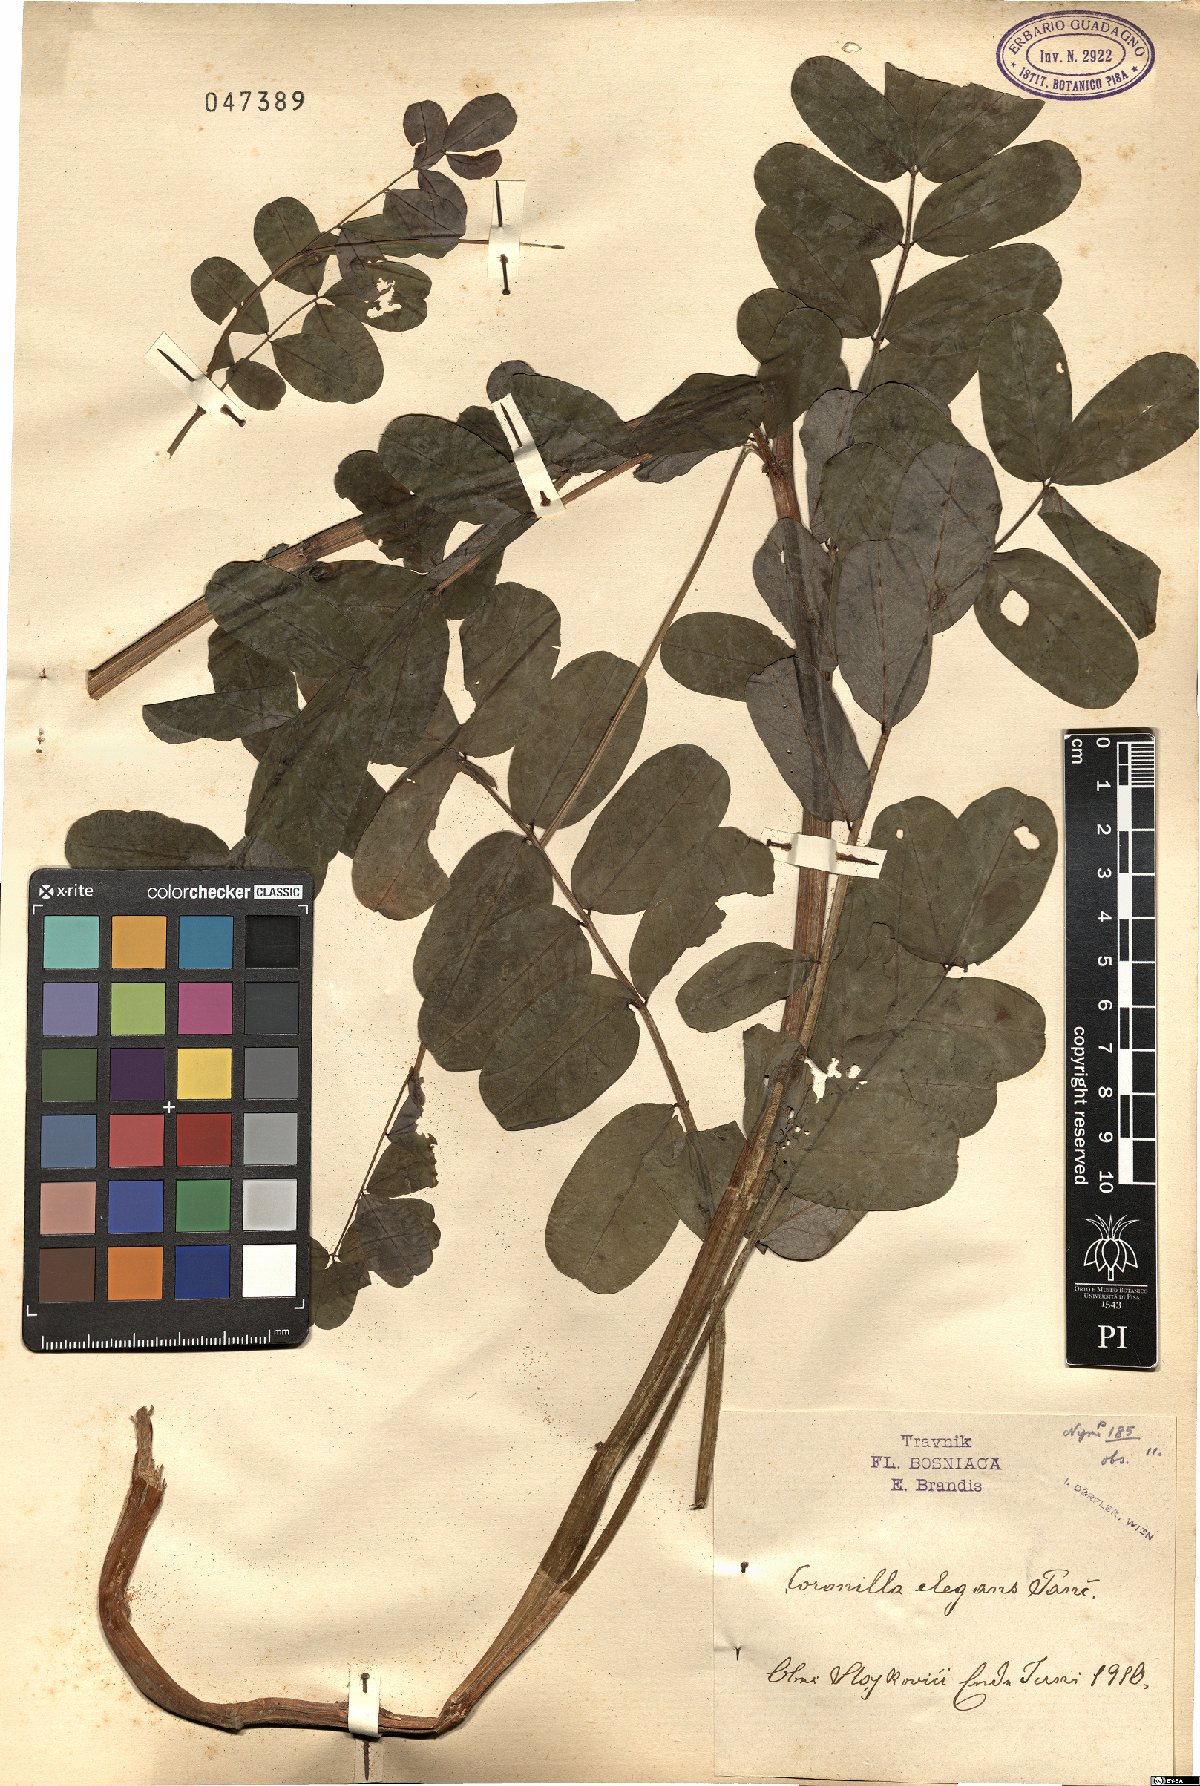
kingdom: Plantae
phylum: Tracheophyta
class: Magnoliopsida
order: Fabales
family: Fabaceae
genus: Coronilla
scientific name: Coronilla elegans
